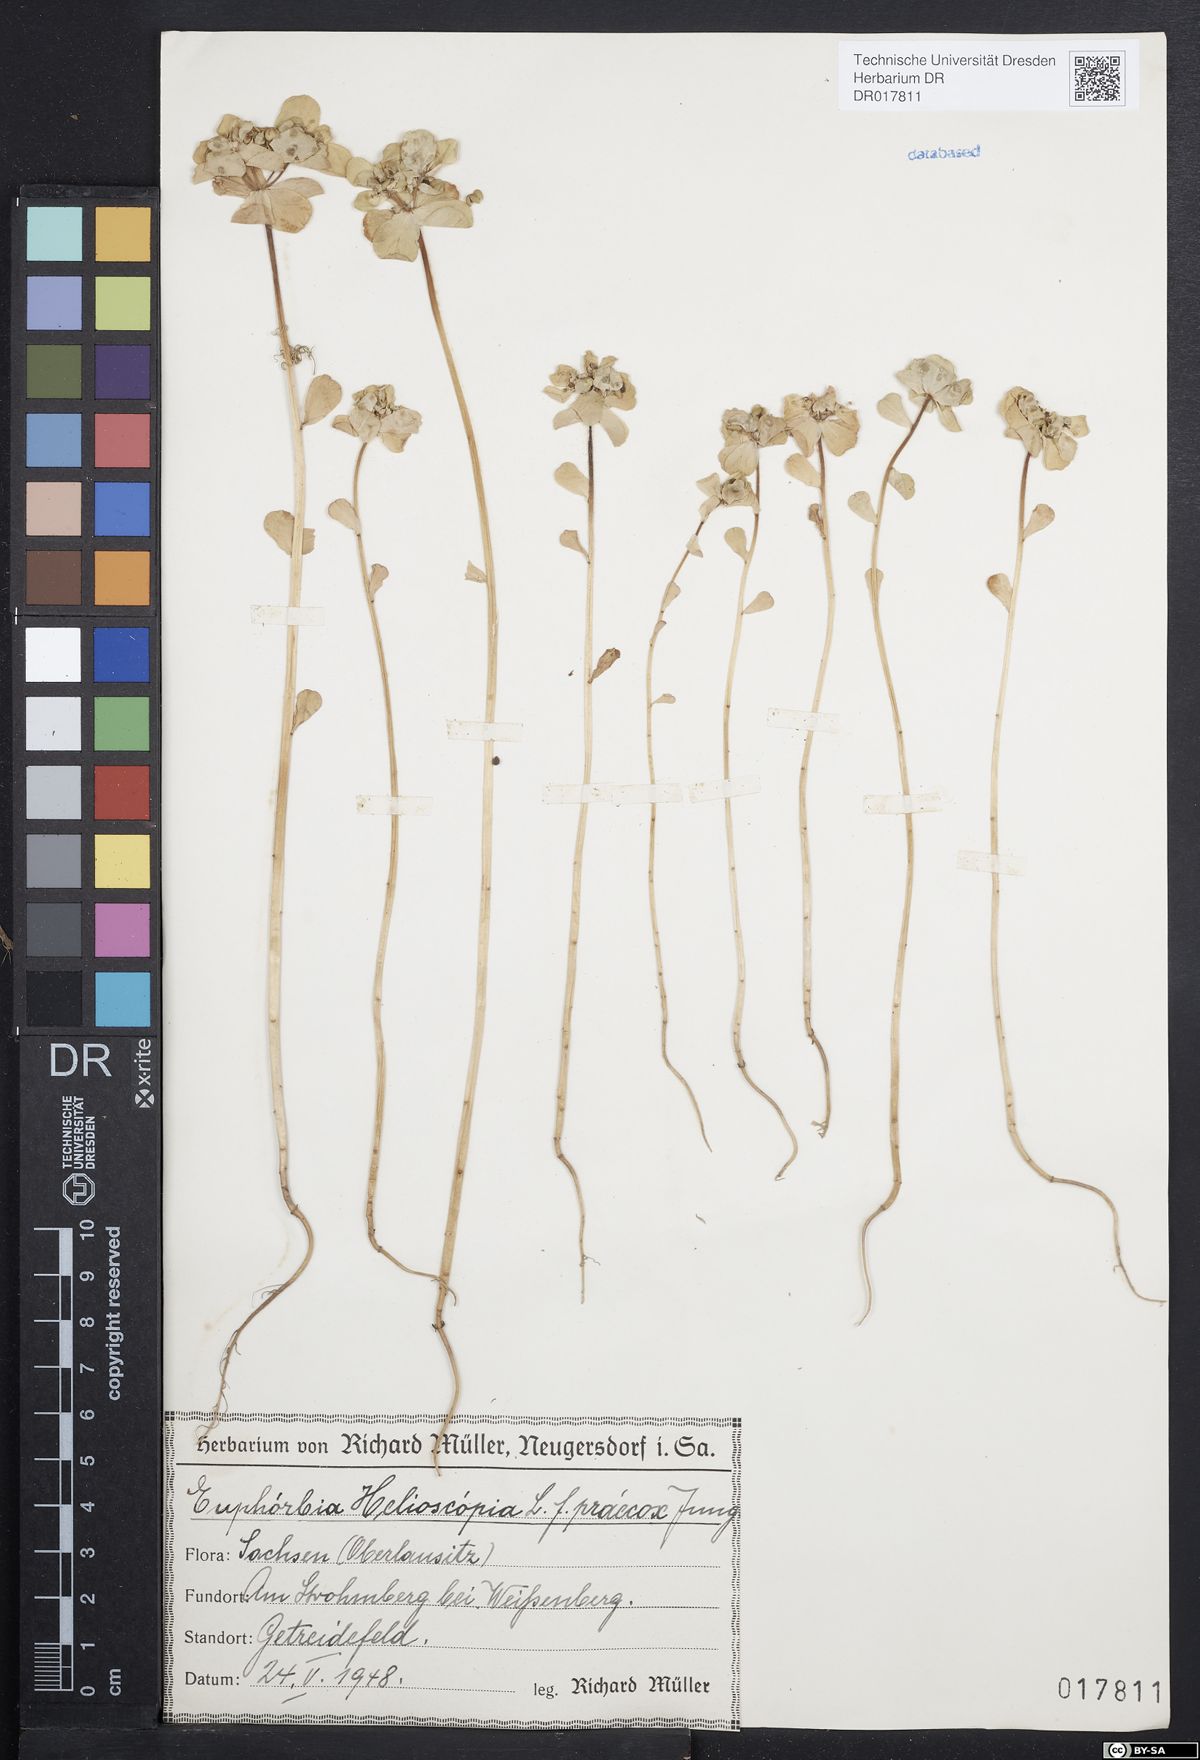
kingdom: Plantae
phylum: Tracheophyta
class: Magnoliopsida
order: Malpighiales
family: Euphorbiaceae
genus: Euphorbia
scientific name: Euphorbia helioscopia
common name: Sun spurge
